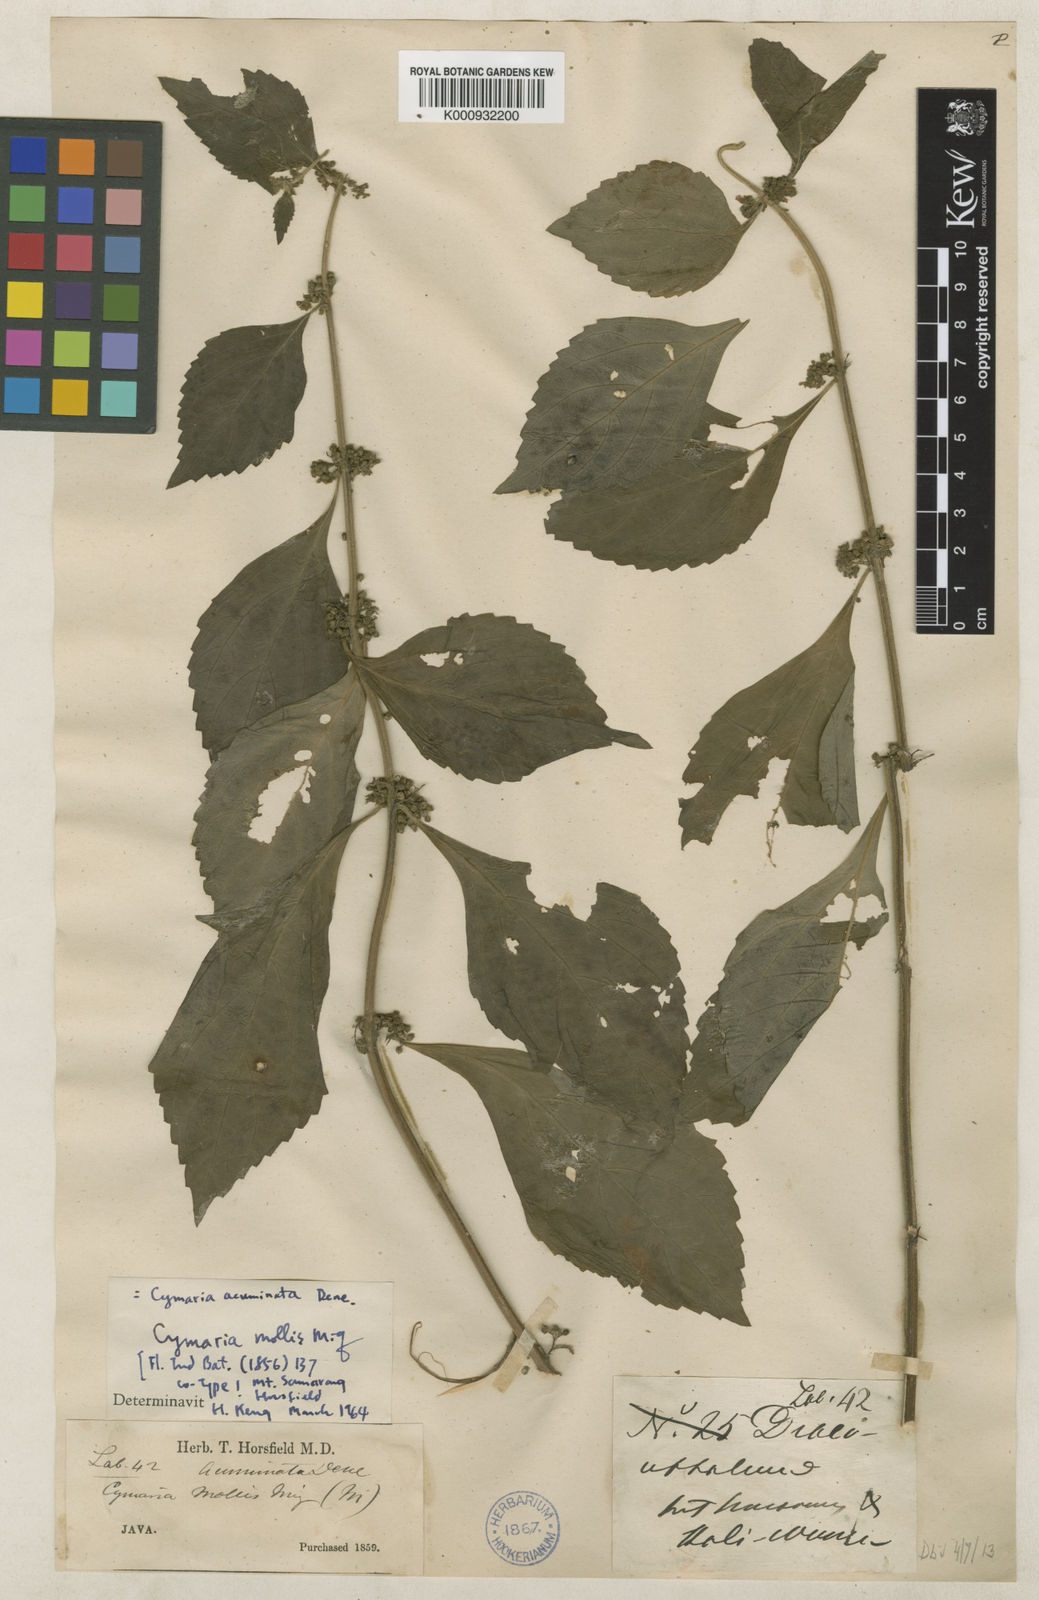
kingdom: Plantae
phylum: Tracheophyta
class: Magnoliopsida
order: Lamiales
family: Lamiaceae
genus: Cymaria
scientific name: Cymaria dichotoma
